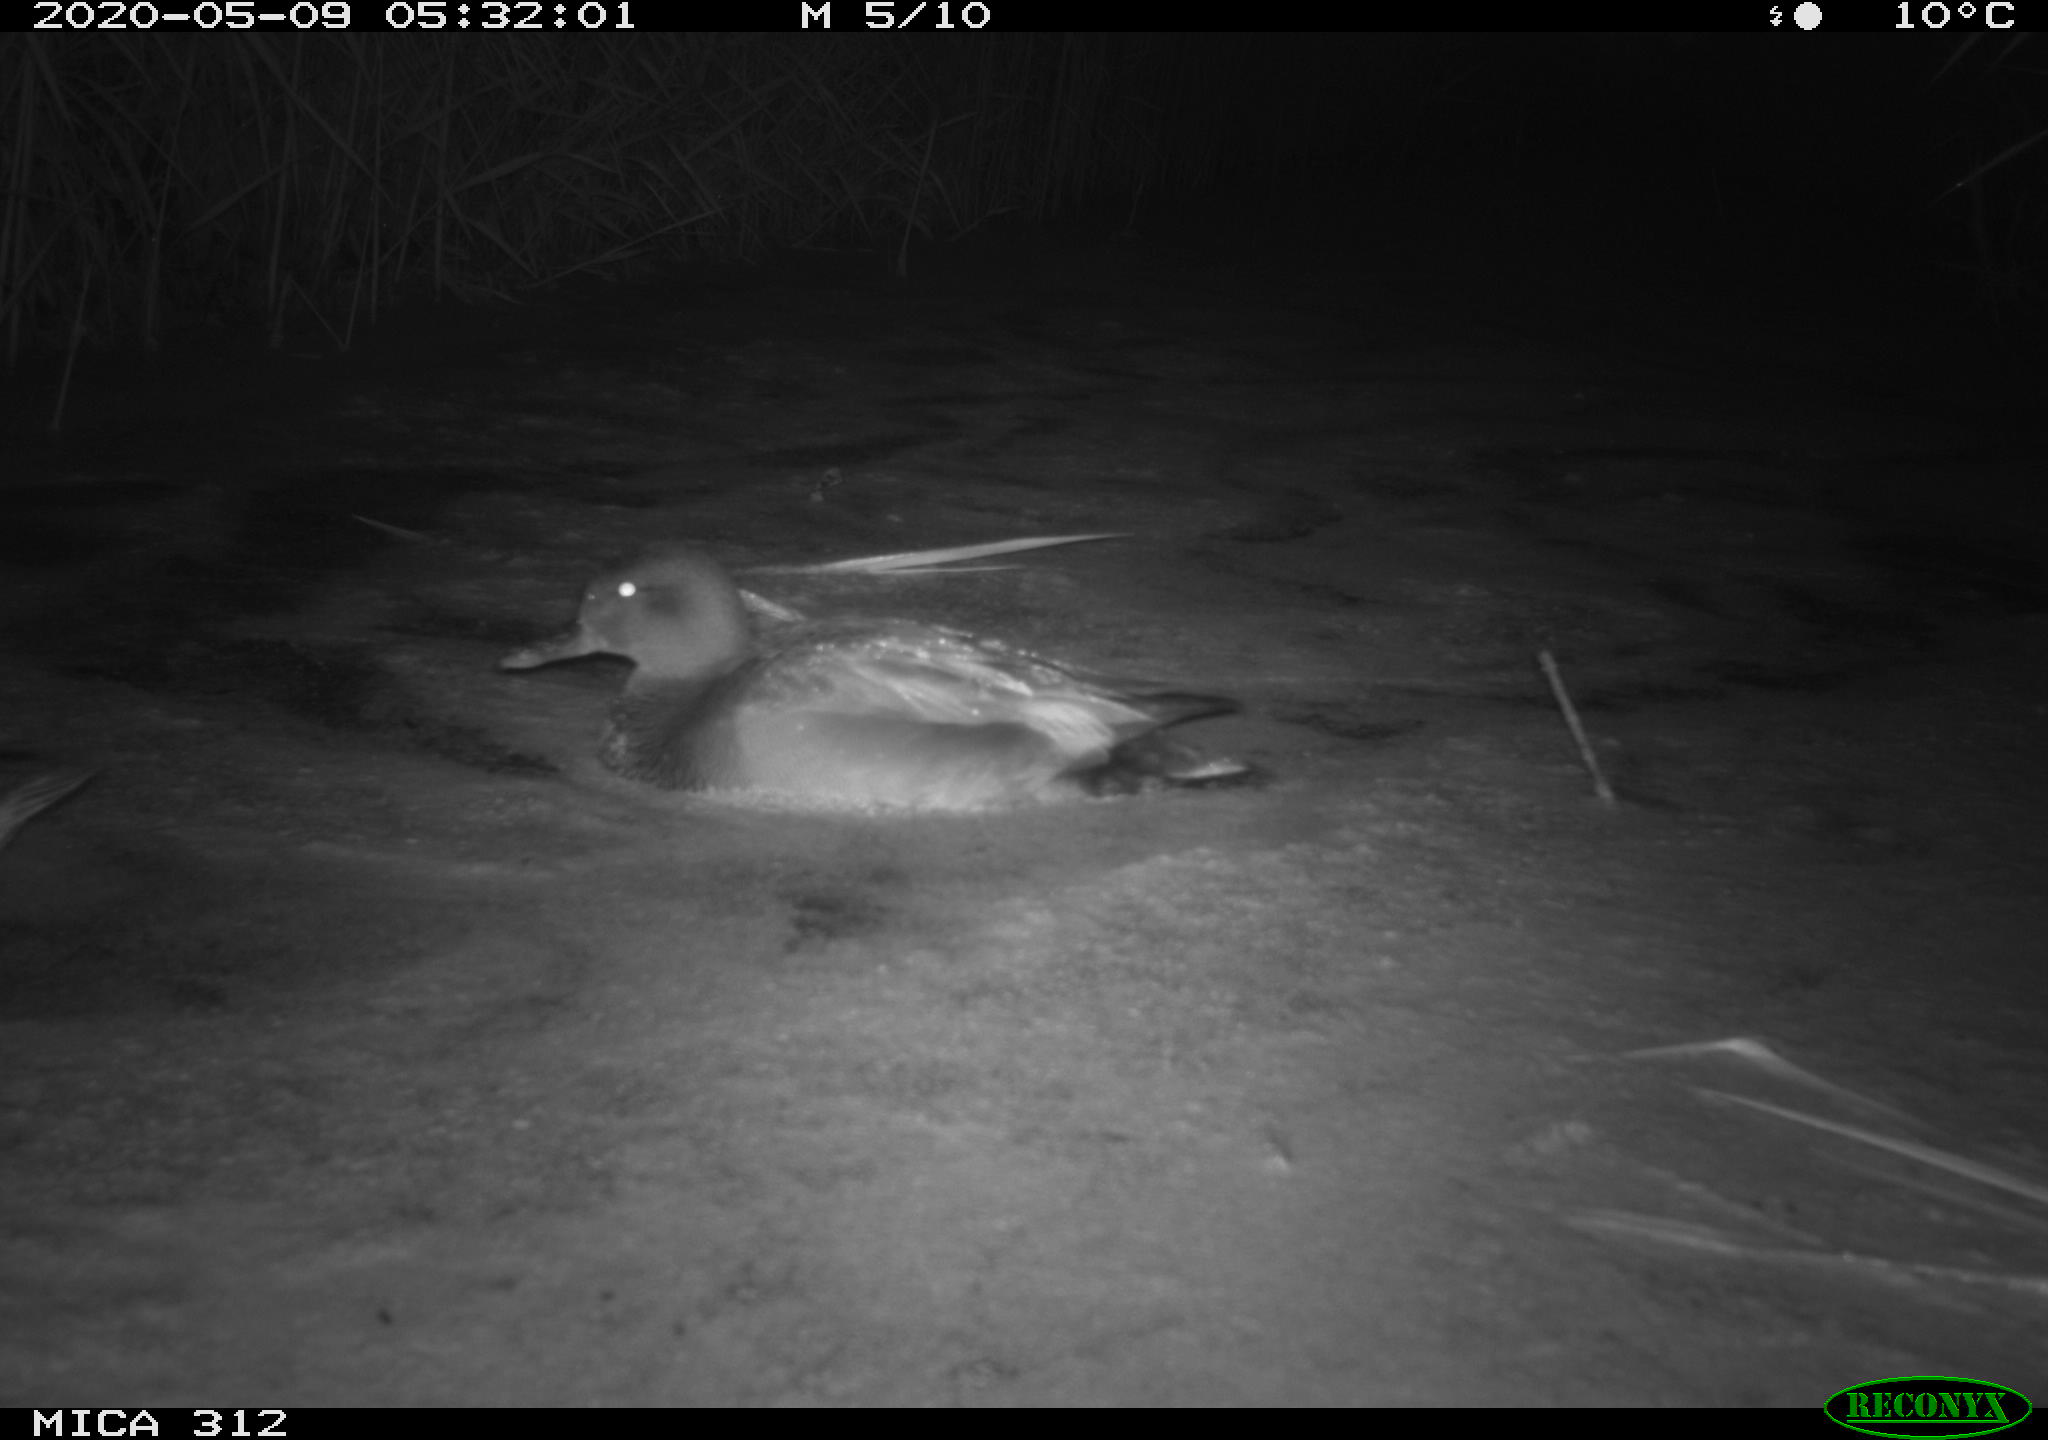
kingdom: Animalia
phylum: Chordata
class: Aves
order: Anseriformes
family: Anatidae
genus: Anas
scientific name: Anas platyrhynchos
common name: Mallard
